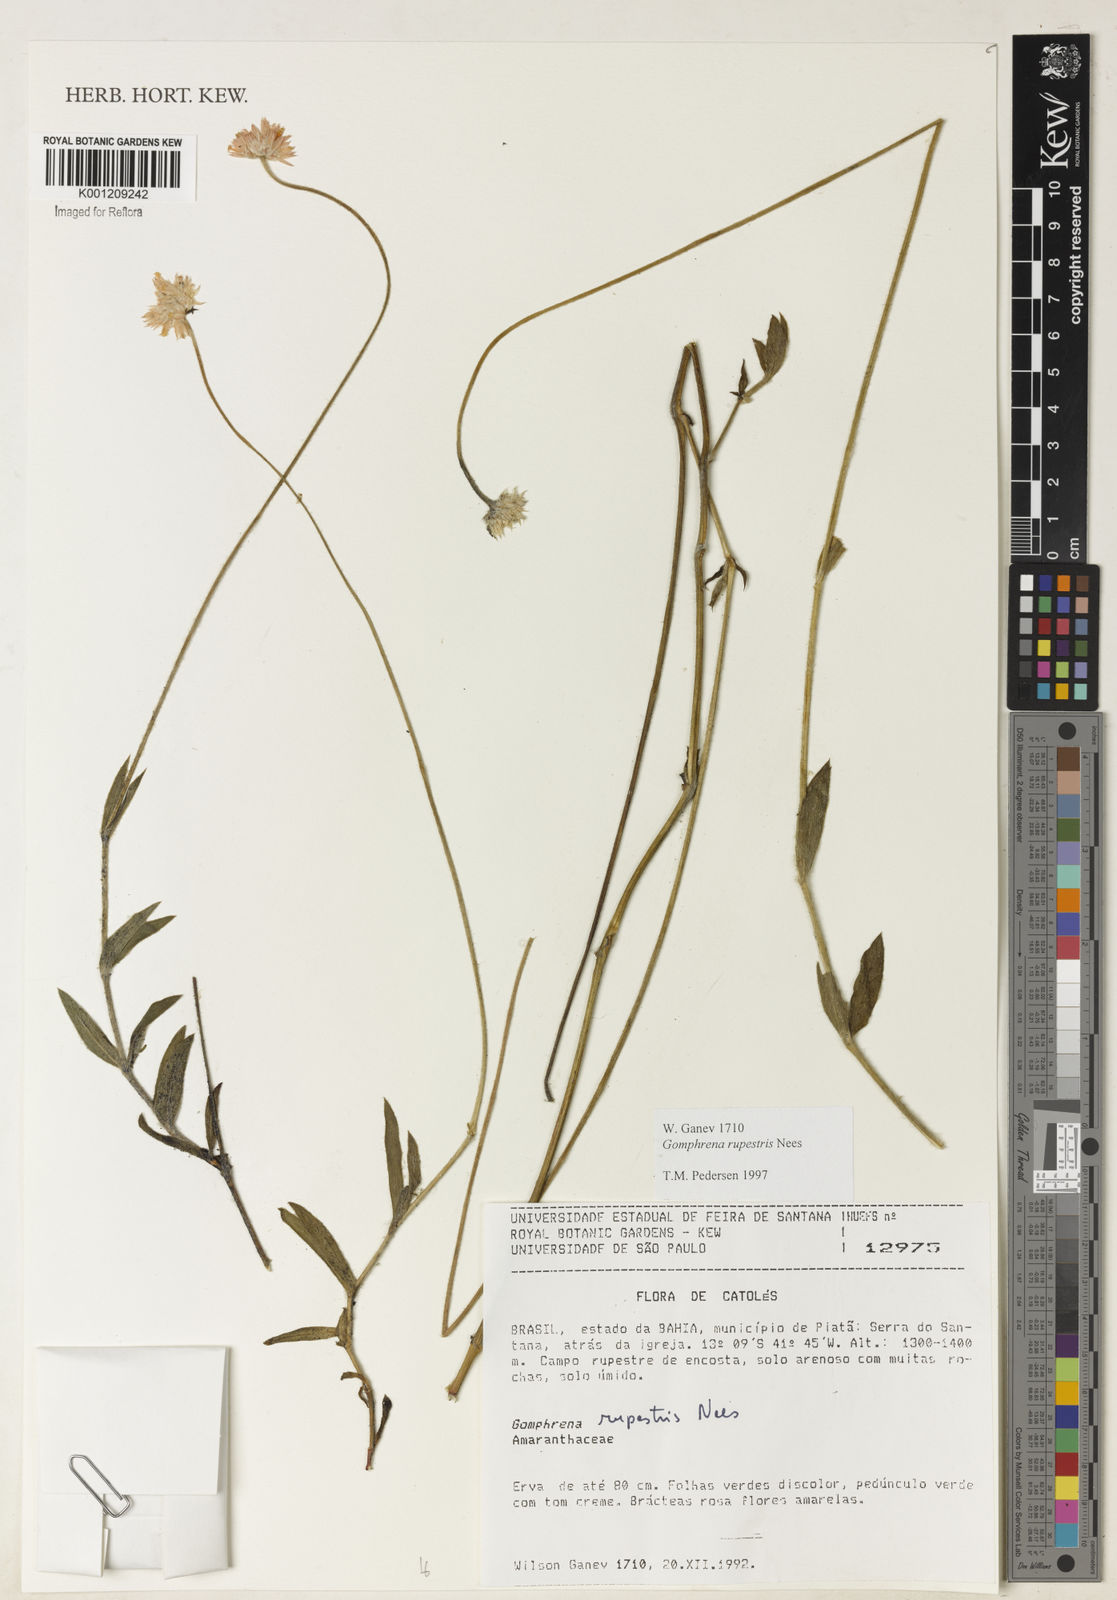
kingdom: Plantae
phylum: Tracheophyta
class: Magnoliopsida
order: Caryophyllales
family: Amaranthaceae
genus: Gomphrena
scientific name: Gomphrena rupestris
